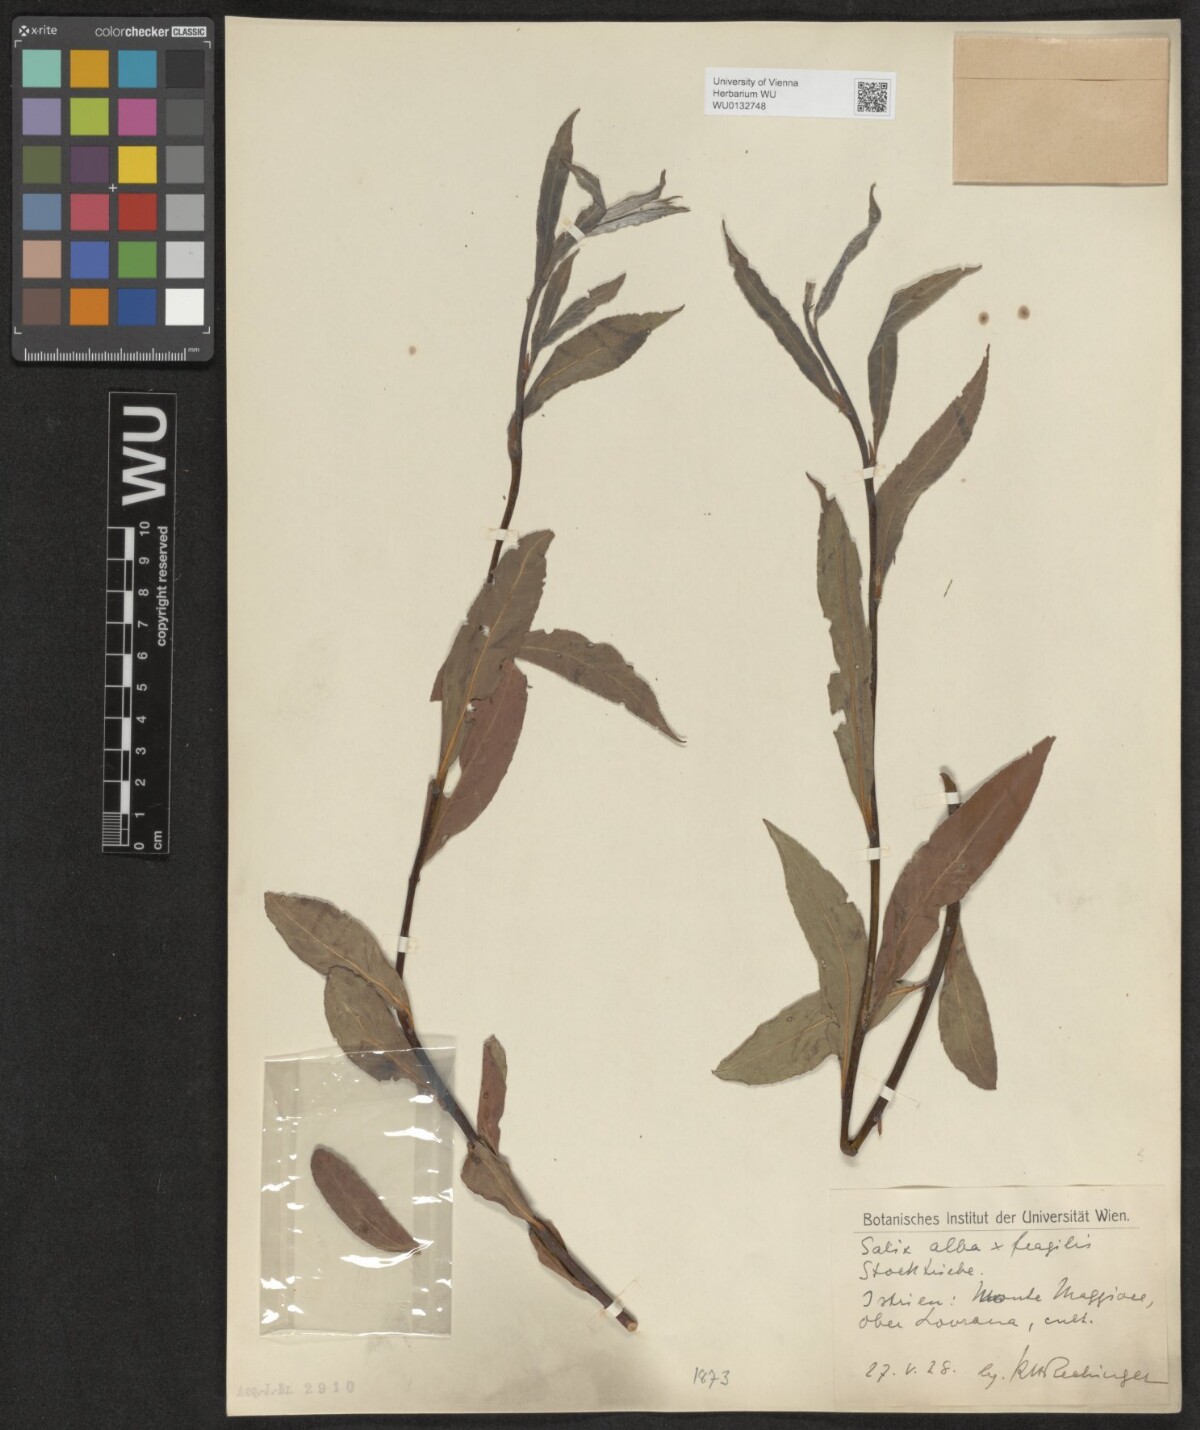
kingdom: Plantae
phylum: Tracheophyta
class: Magnoliopsida
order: Malpighiales
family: Salicaceae
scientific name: Salicaceae
